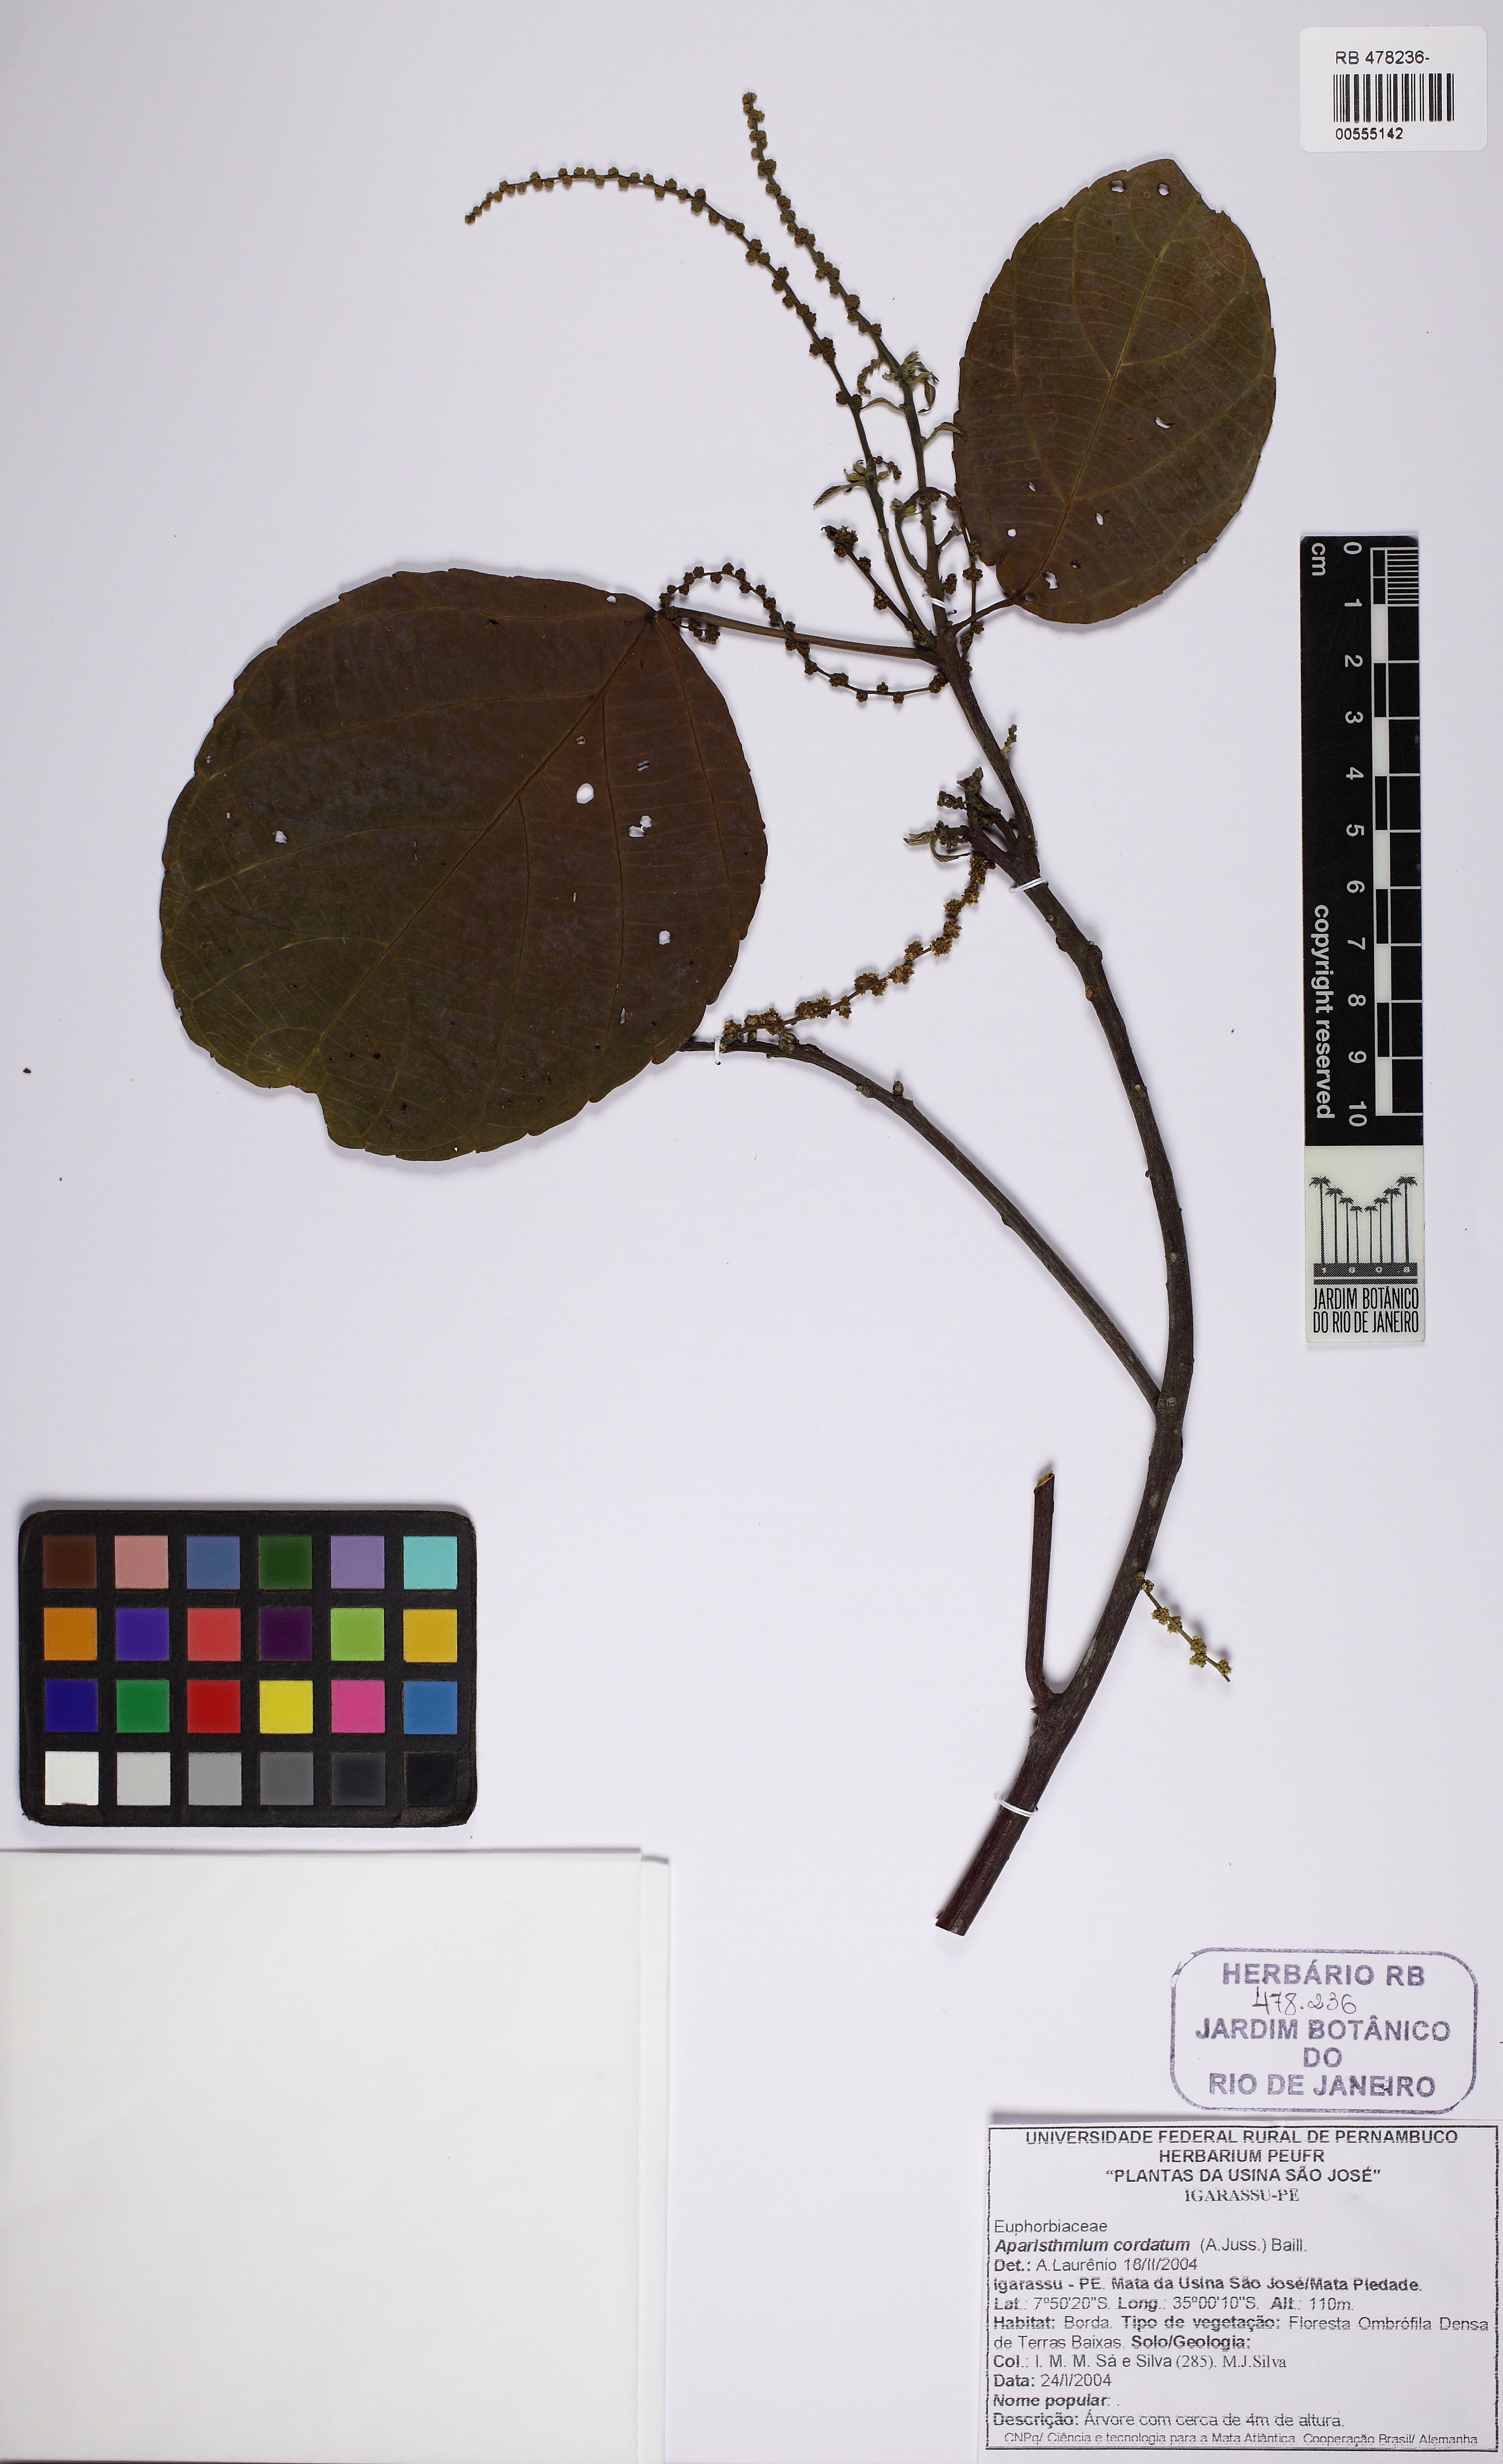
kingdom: Plantae
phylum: Tracheophyta
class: Magnoliopsida
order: Malpighiales
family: Euphorbiaceae
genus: Aparisthmium
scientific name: Aparisthmium cordatum
